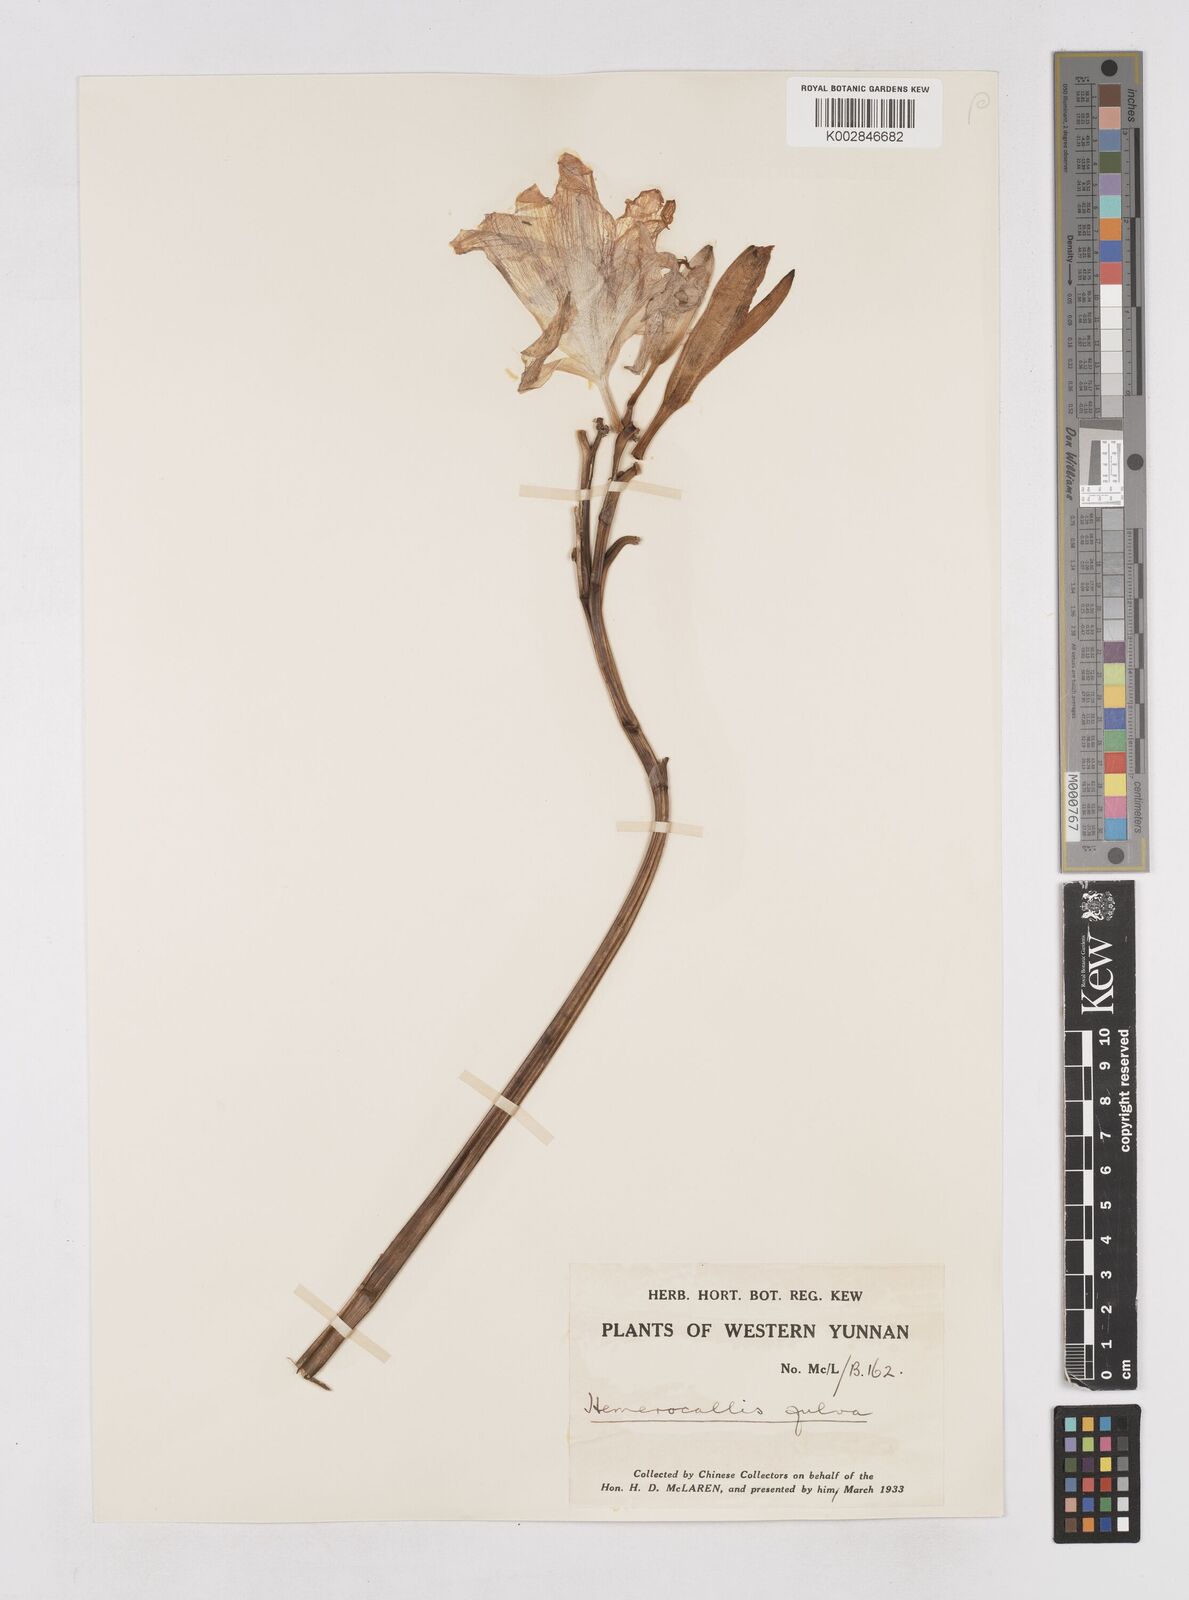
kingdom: Plantae
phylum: Tracheophyta
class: Liliopsida
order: Asparagales
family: Asphodelaceae
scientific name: Asphodelaceae
